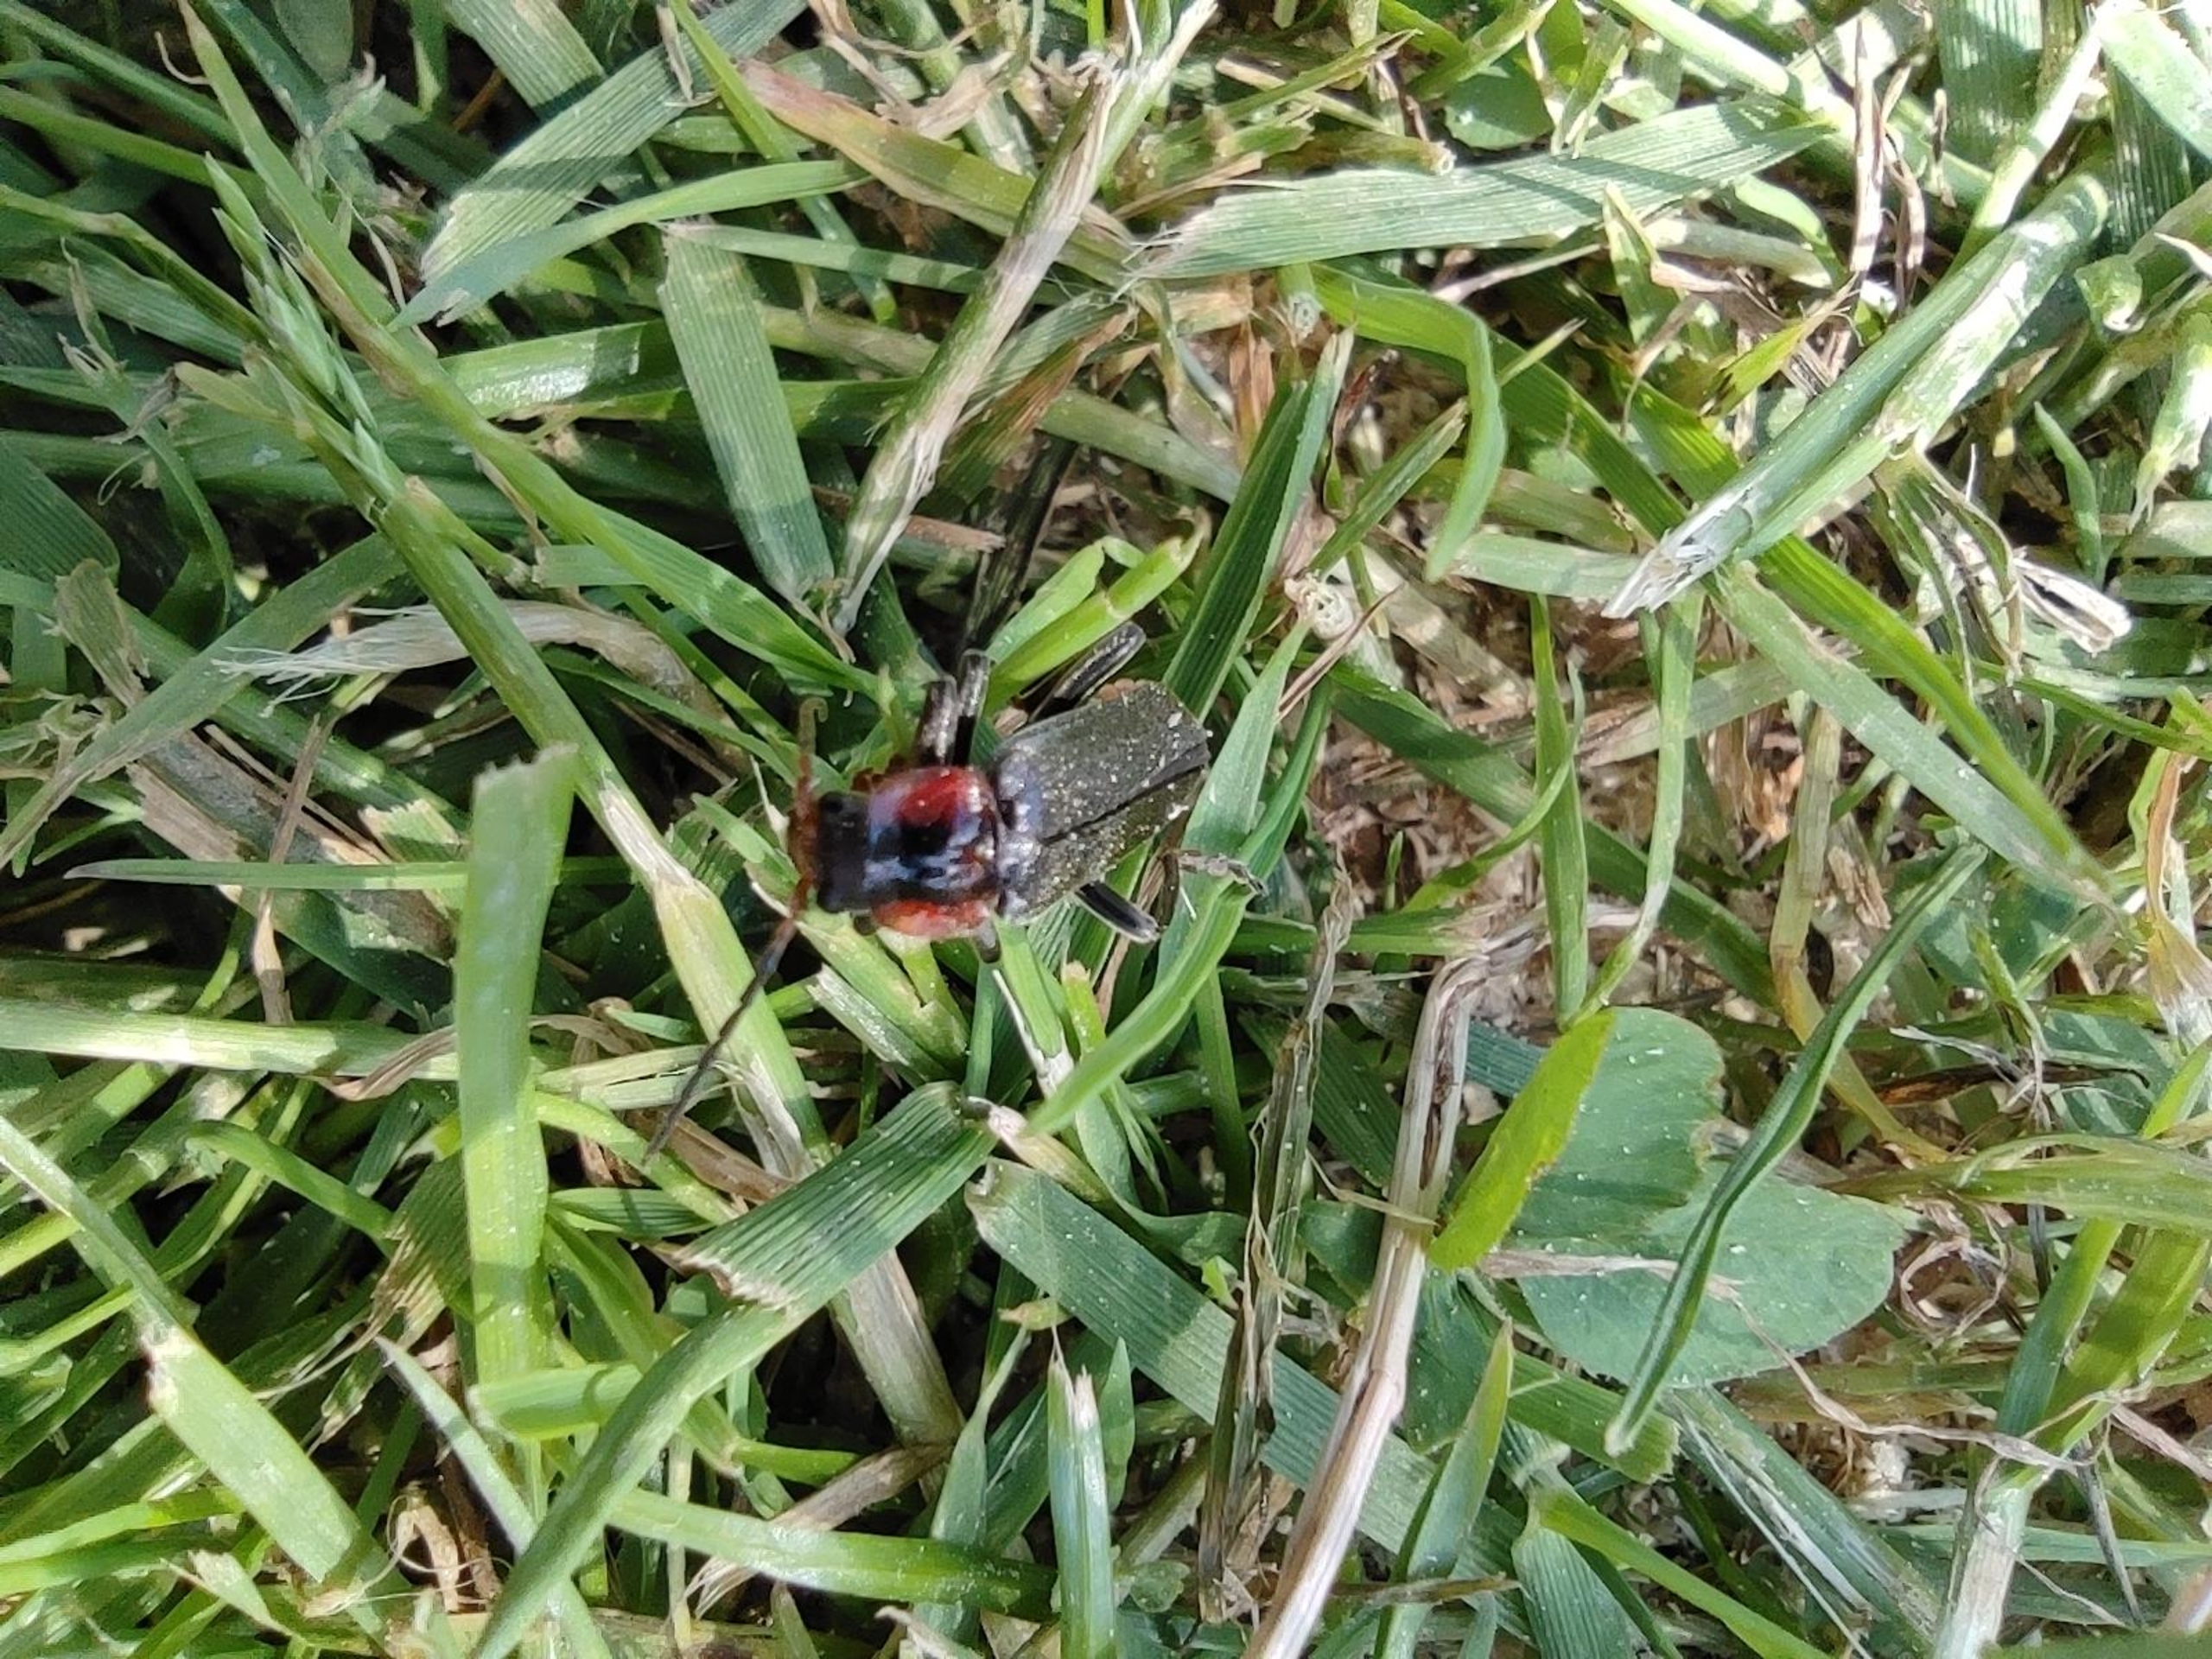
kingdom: Animalia
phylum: Arthropoda
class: Insecta
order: Coleoptera
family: Cantharidae
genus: Cantharis
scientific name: Cantharis fusca
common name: Stor blødvinge
